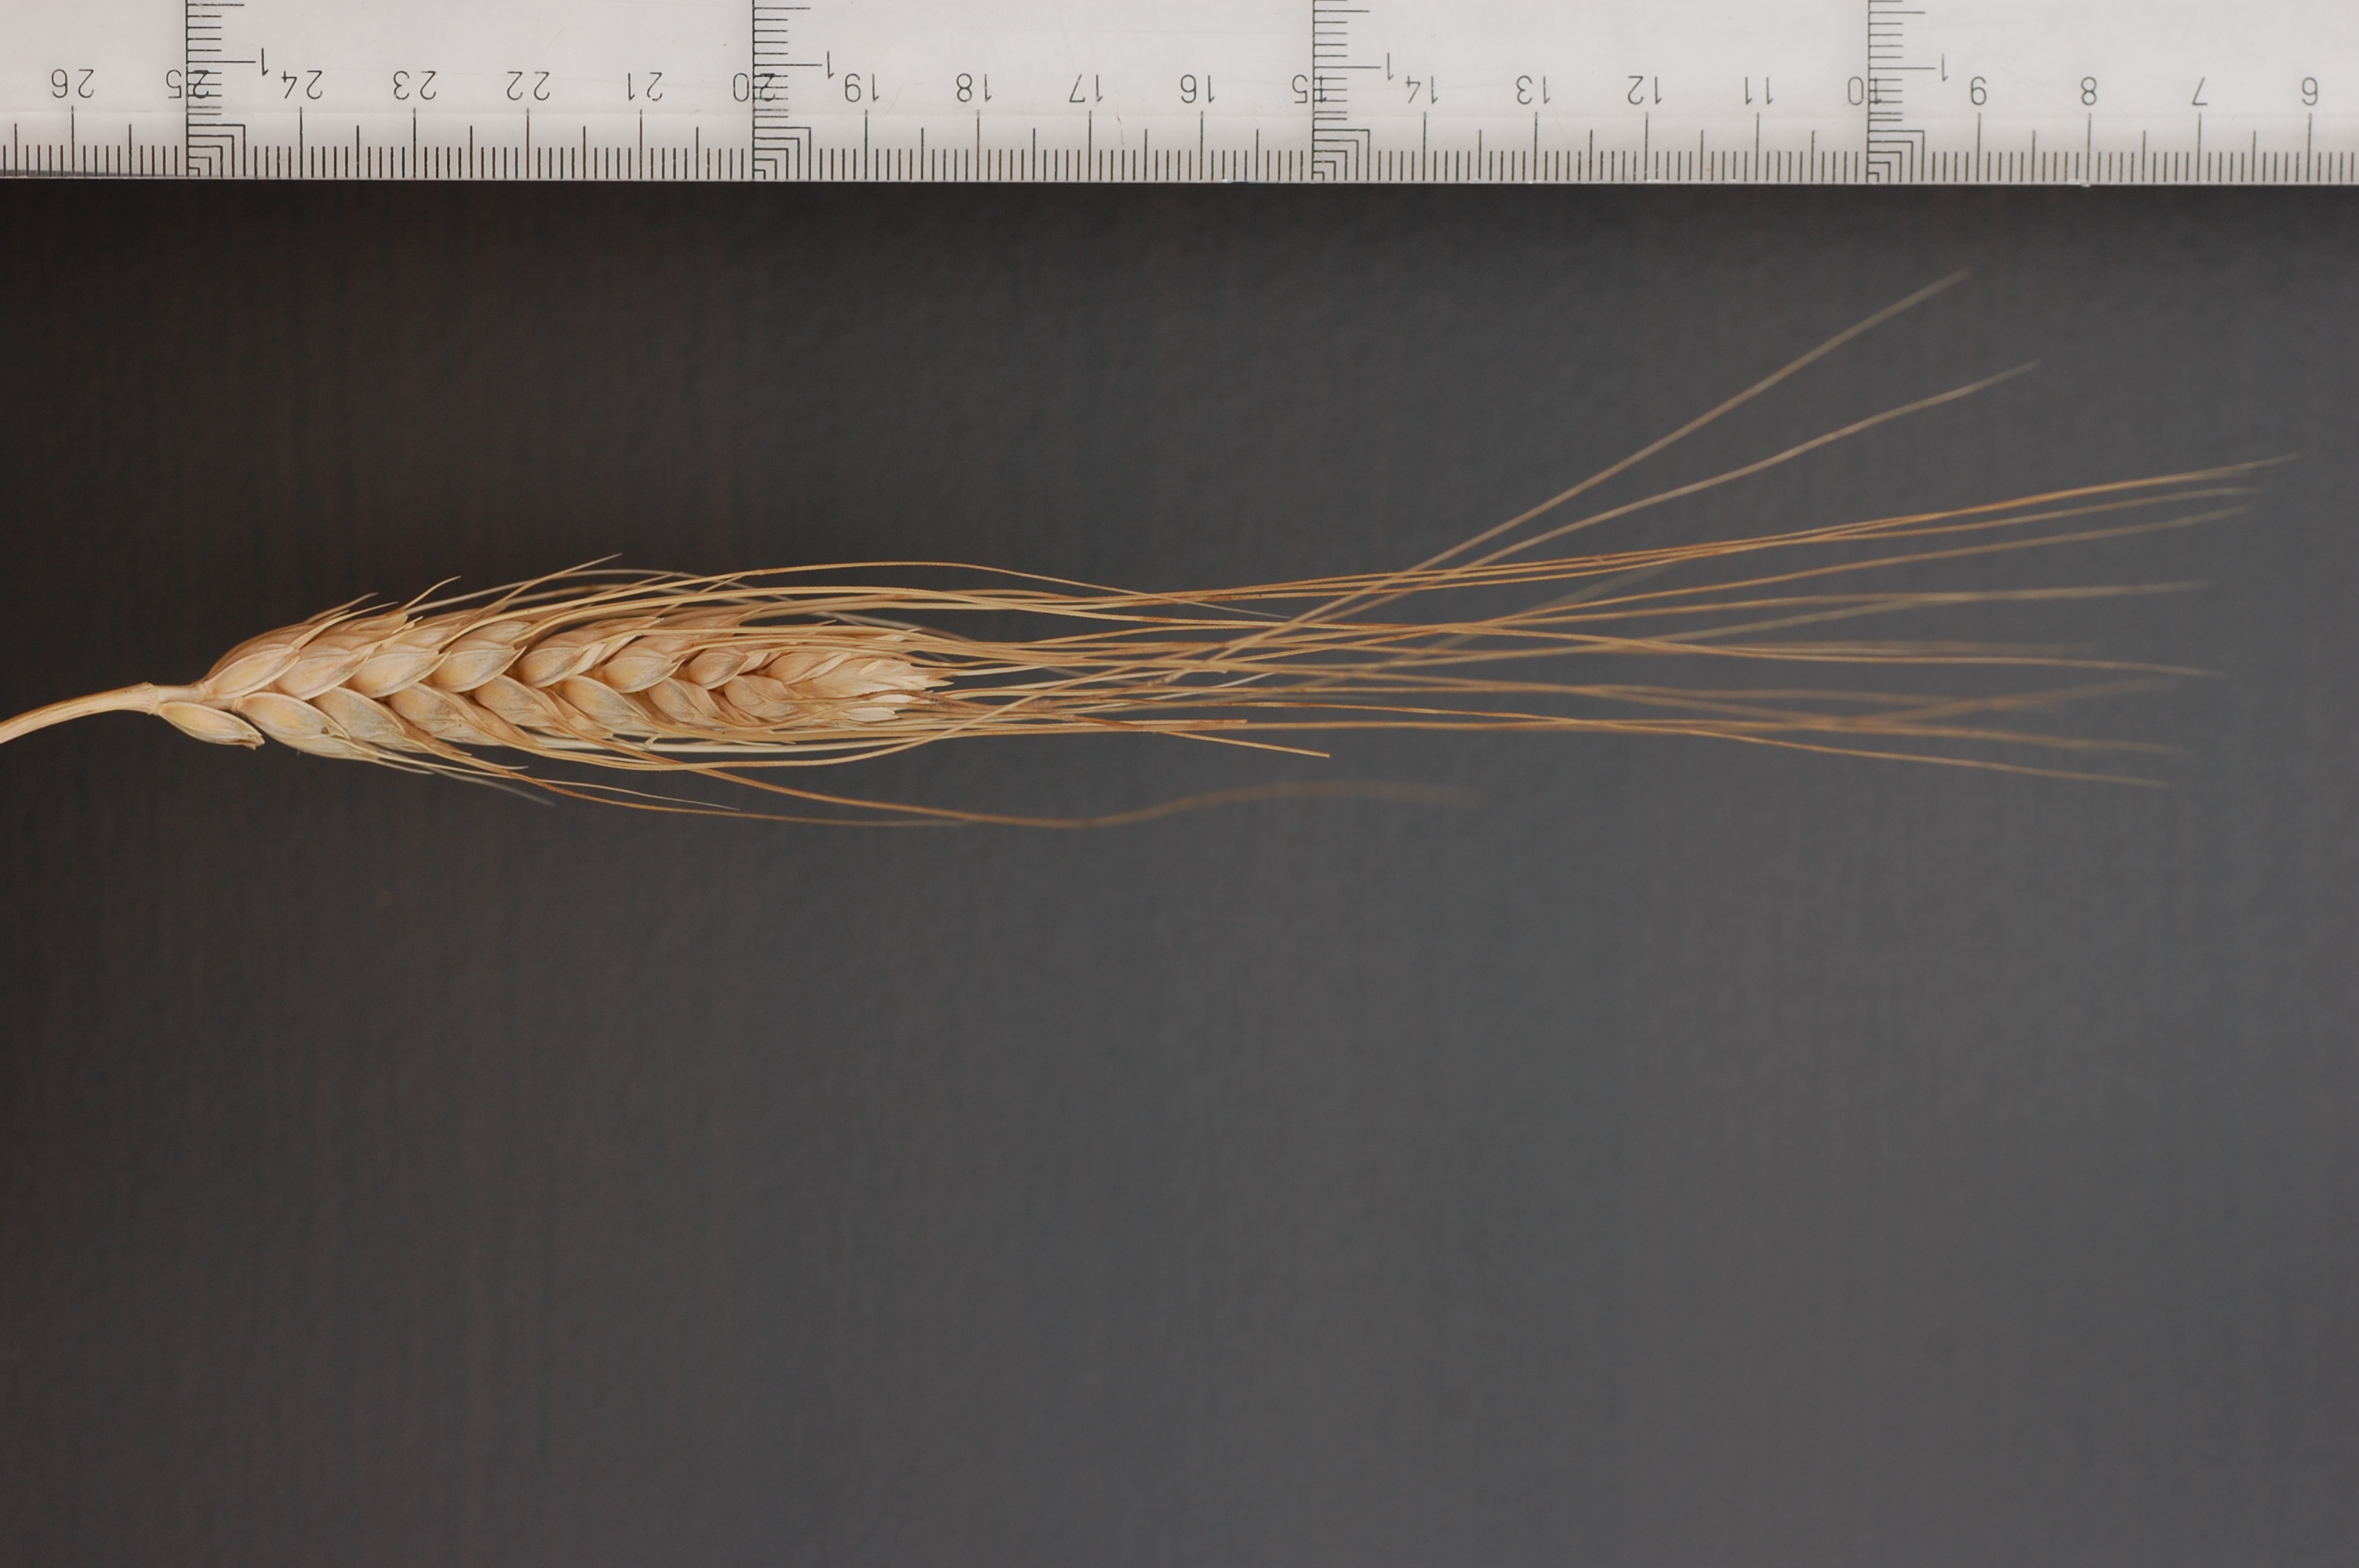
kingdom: Plantae
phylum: Tracheophyta
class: Liliopsida
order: Poales
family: Poaceae
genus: Triticum
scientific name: Triticum aestivum
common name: Common wheat
